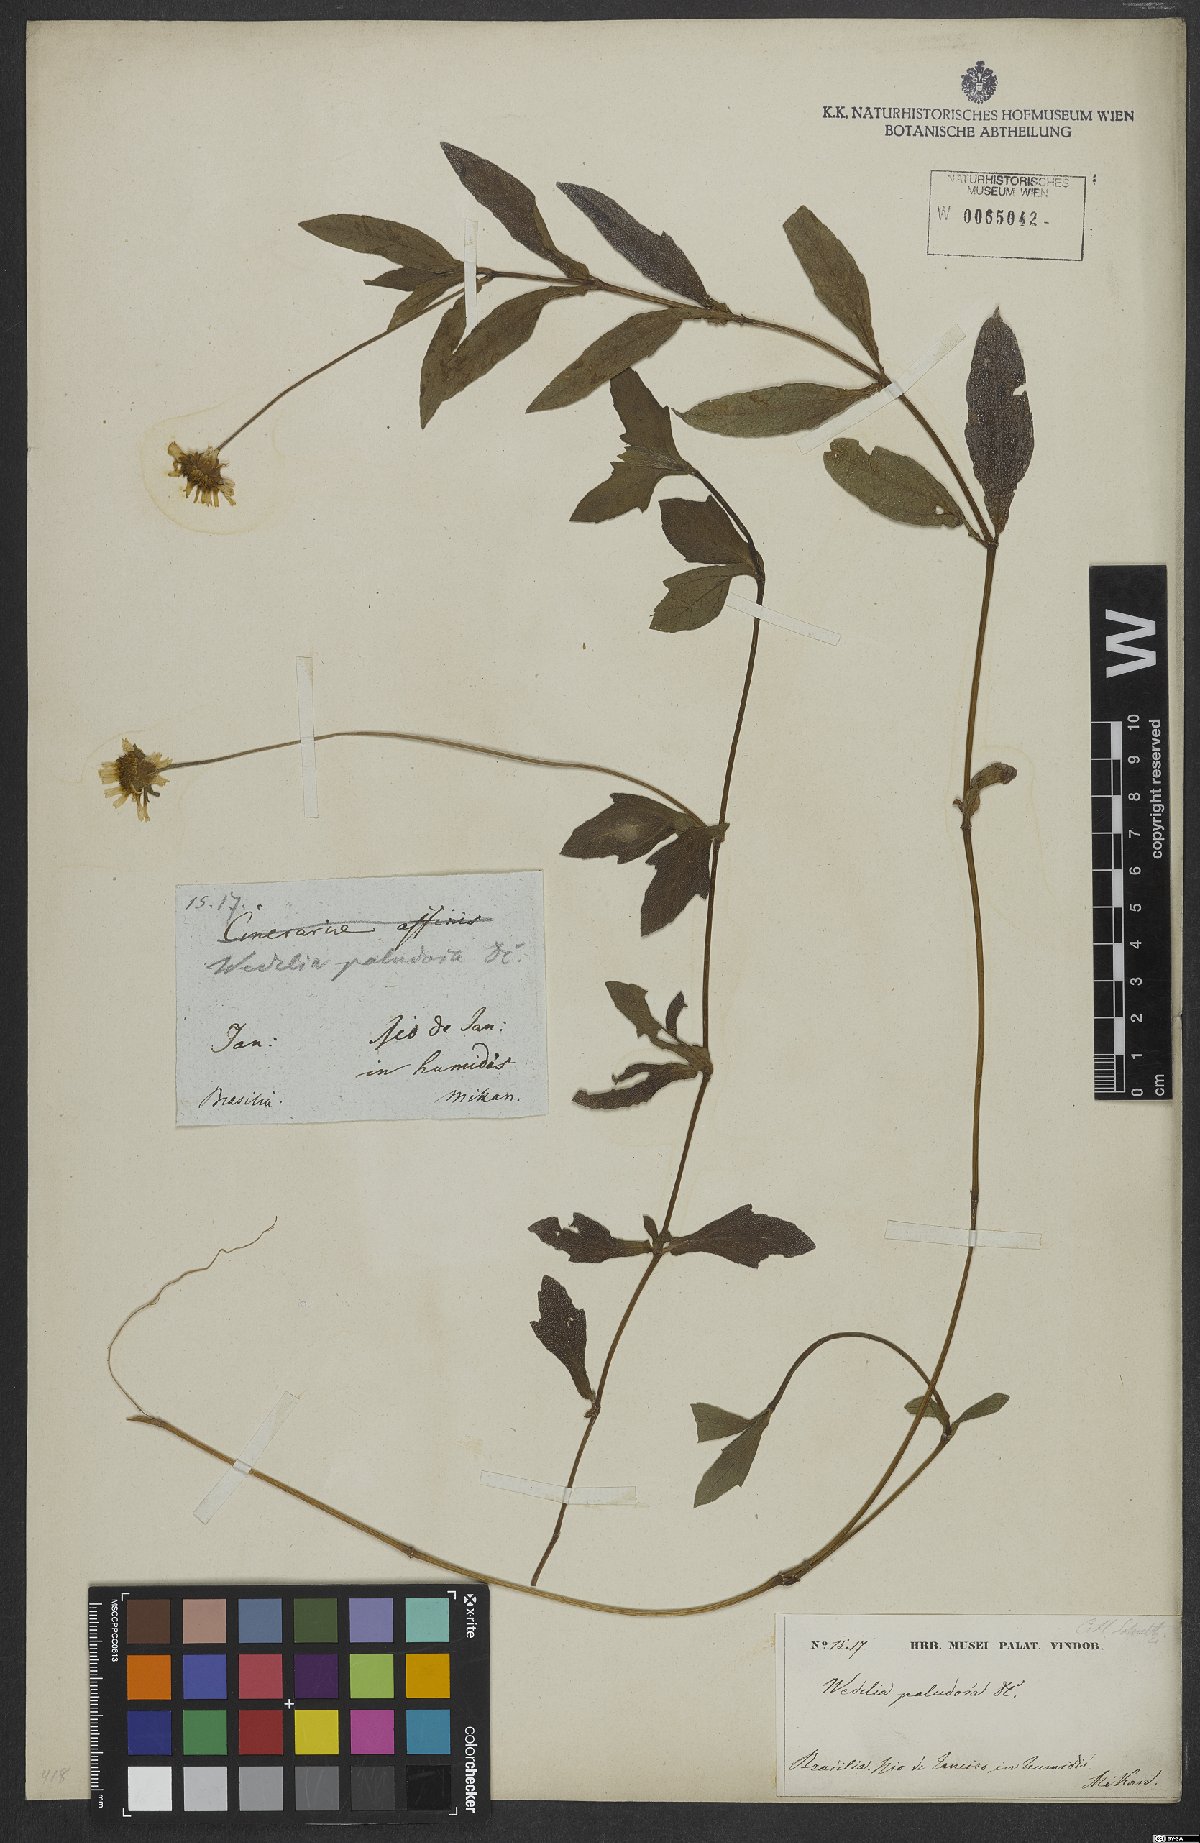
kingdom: Plantae
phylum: Tracheophyta
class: Magnoliopsida
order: Asterales
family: Asteraceae
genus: Sphagneticola
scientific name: Sphagneticola trilobata
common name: Bay biscayne creeping-oxeye
